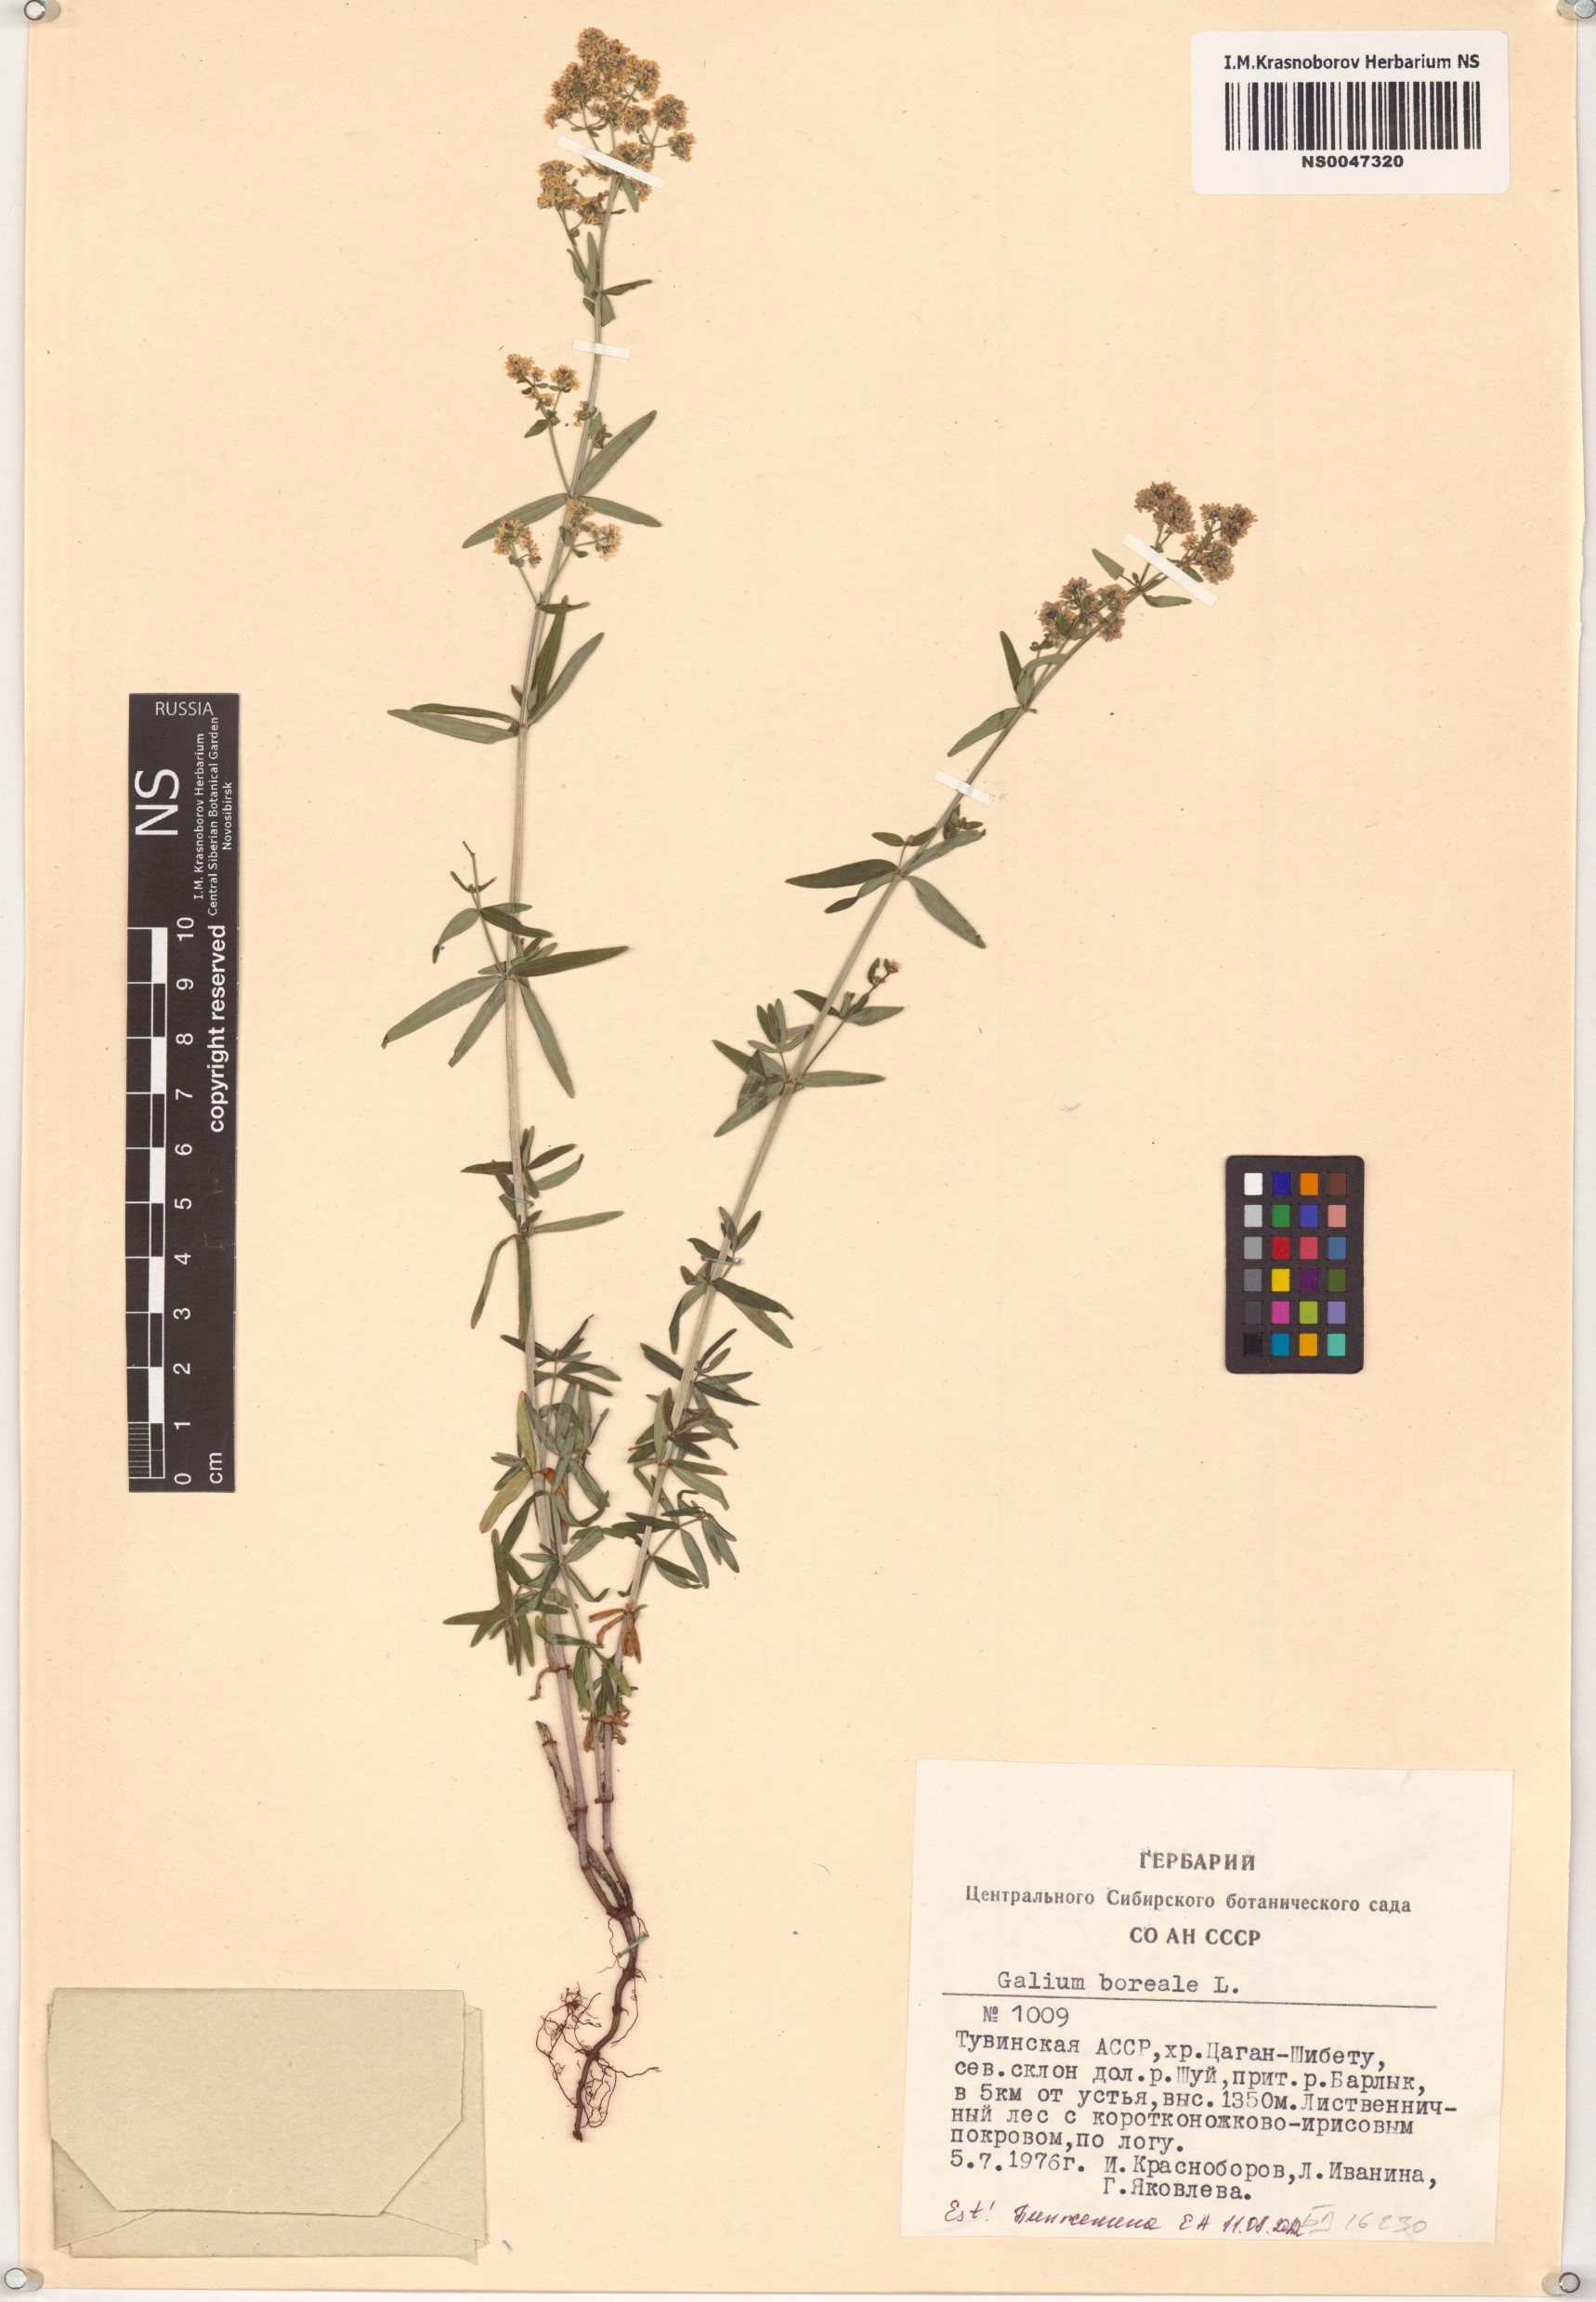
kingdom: Plantae
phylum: Tracheophyta
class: Magnoliopsida
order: Gentianales
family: Rubiaceae
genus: Galium
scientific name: Galium boreale
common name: Northern bedstraw
